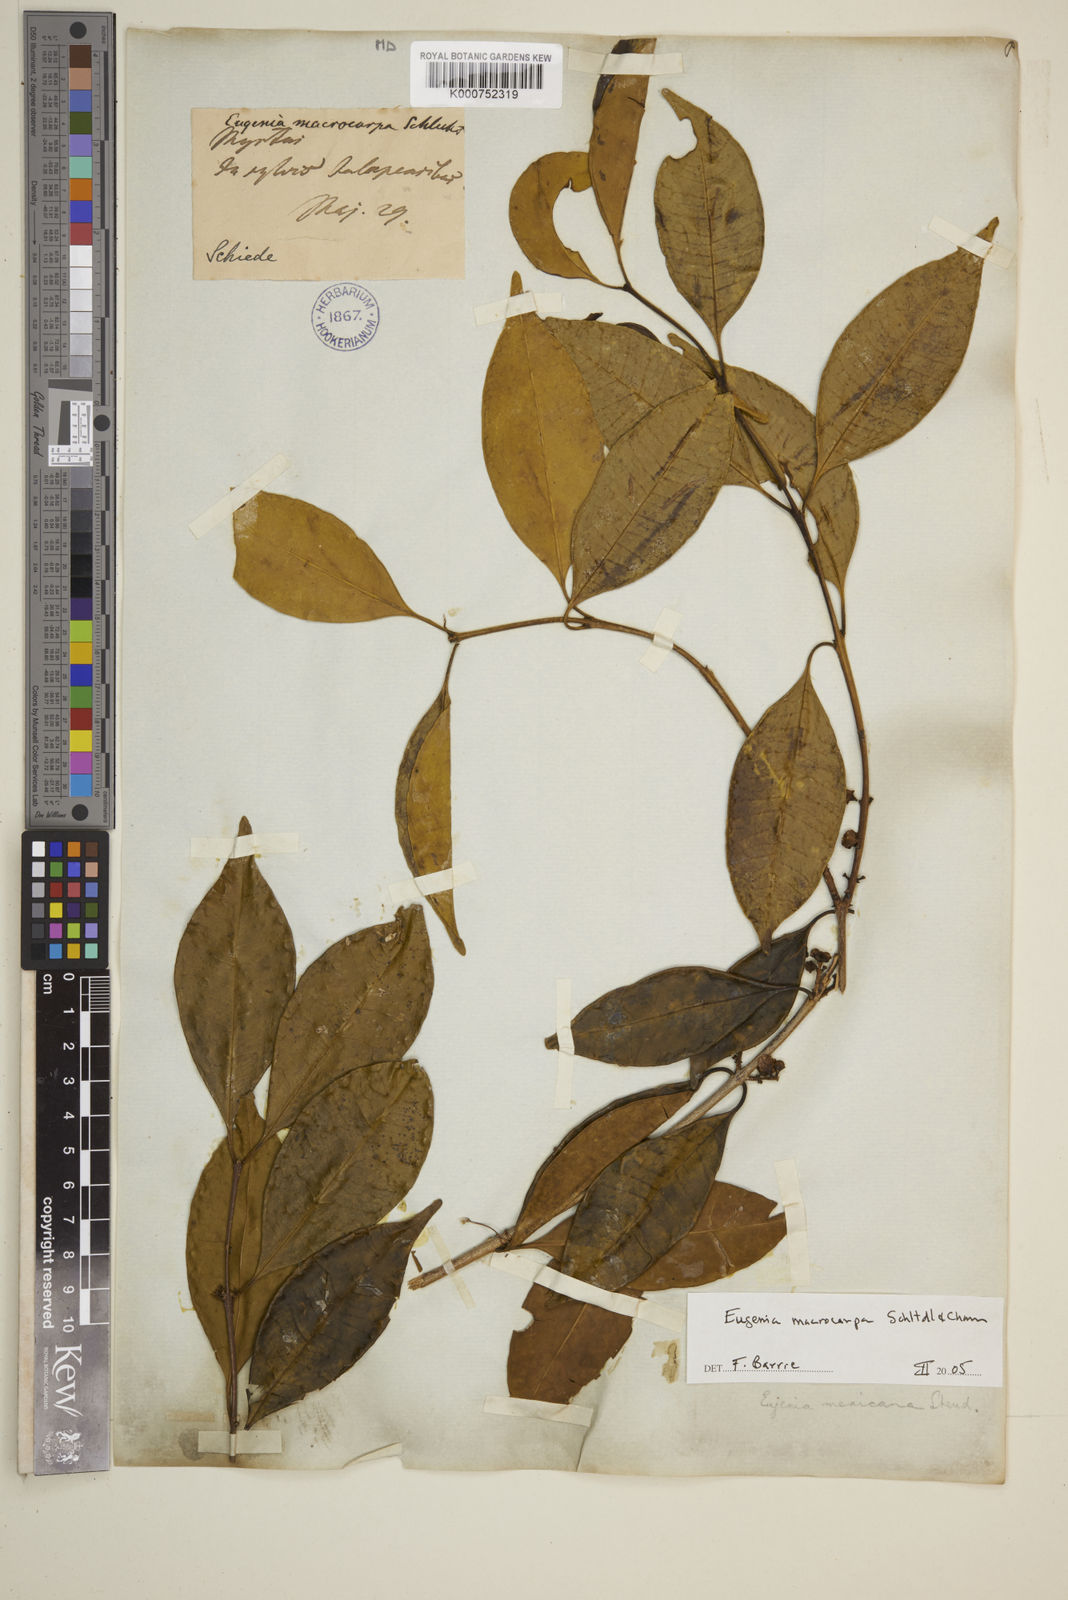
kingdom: Plantae
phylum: Tracheophyta
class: Magnoliopsida
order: Myrtales
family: Myrtaceae
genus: Eugenia
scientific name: Eugenia macrocarpa
